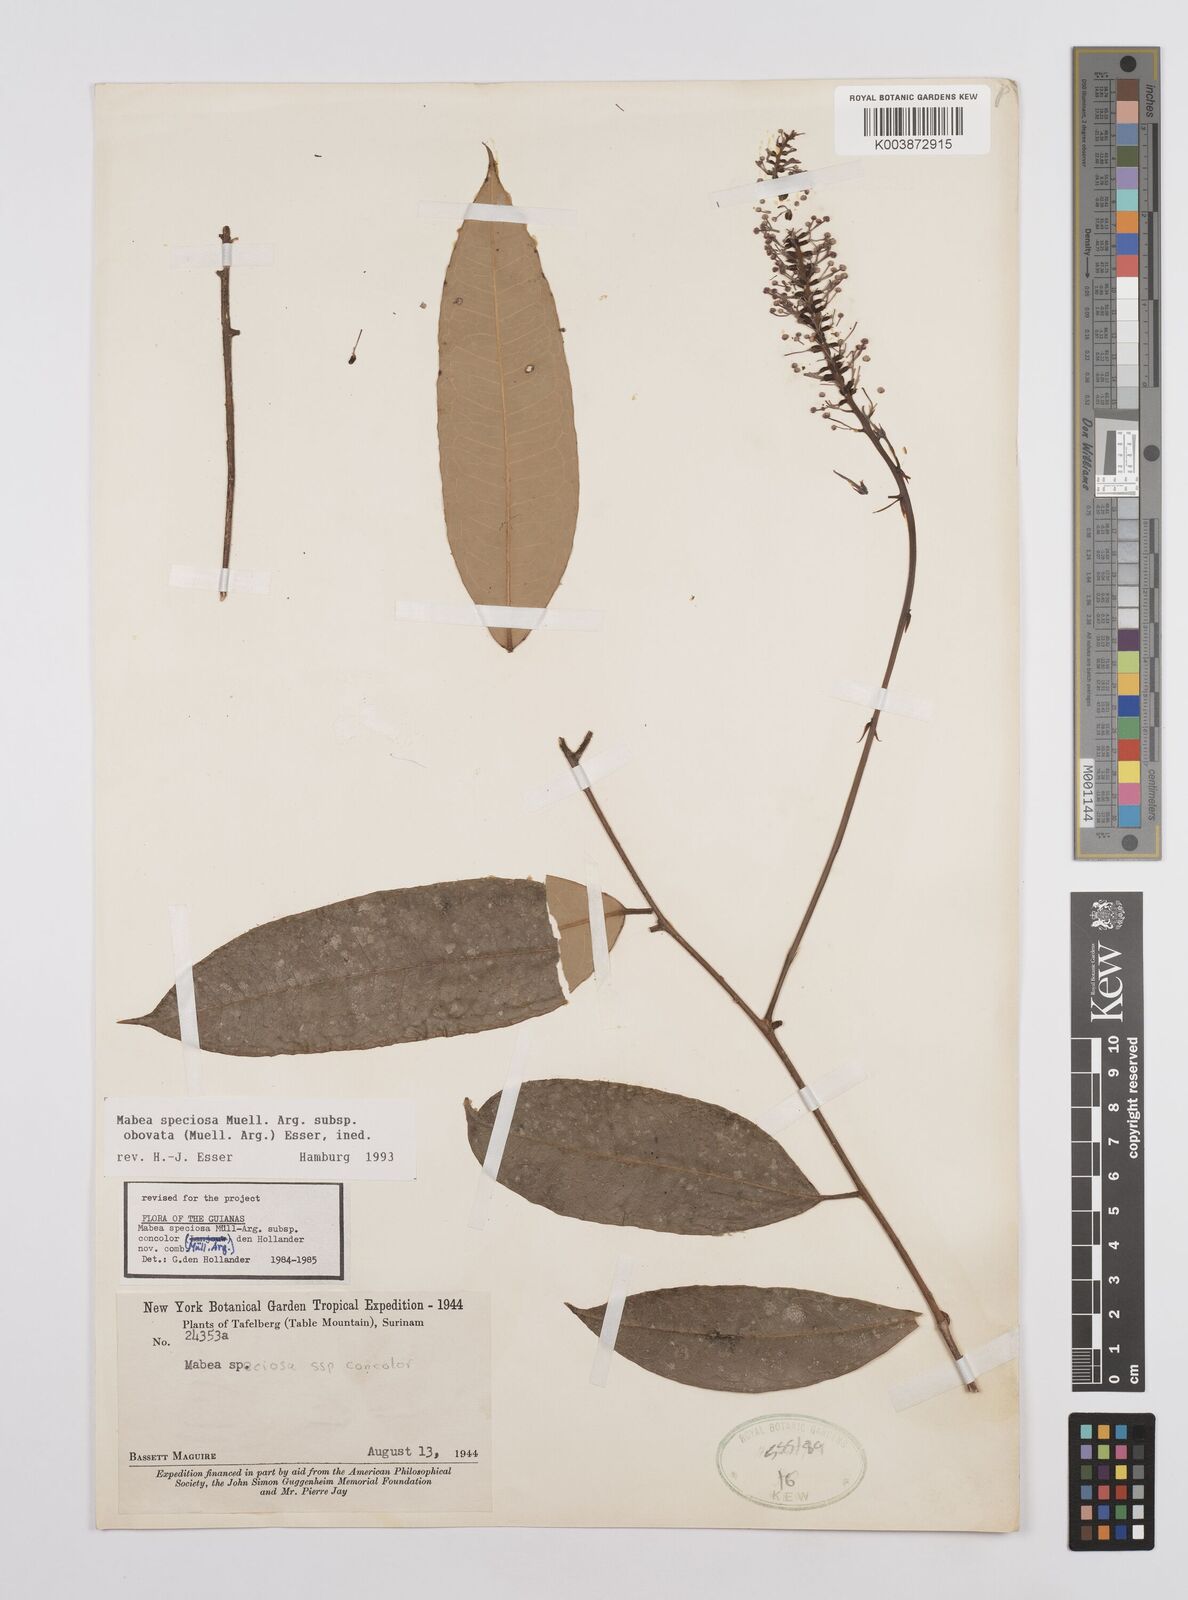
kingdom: Plantae
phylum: Tracheophyta
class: Magnoliopsida
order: Malpighiales
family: Euphorbiaceae
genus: Mabea
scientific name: Mabea piriri
